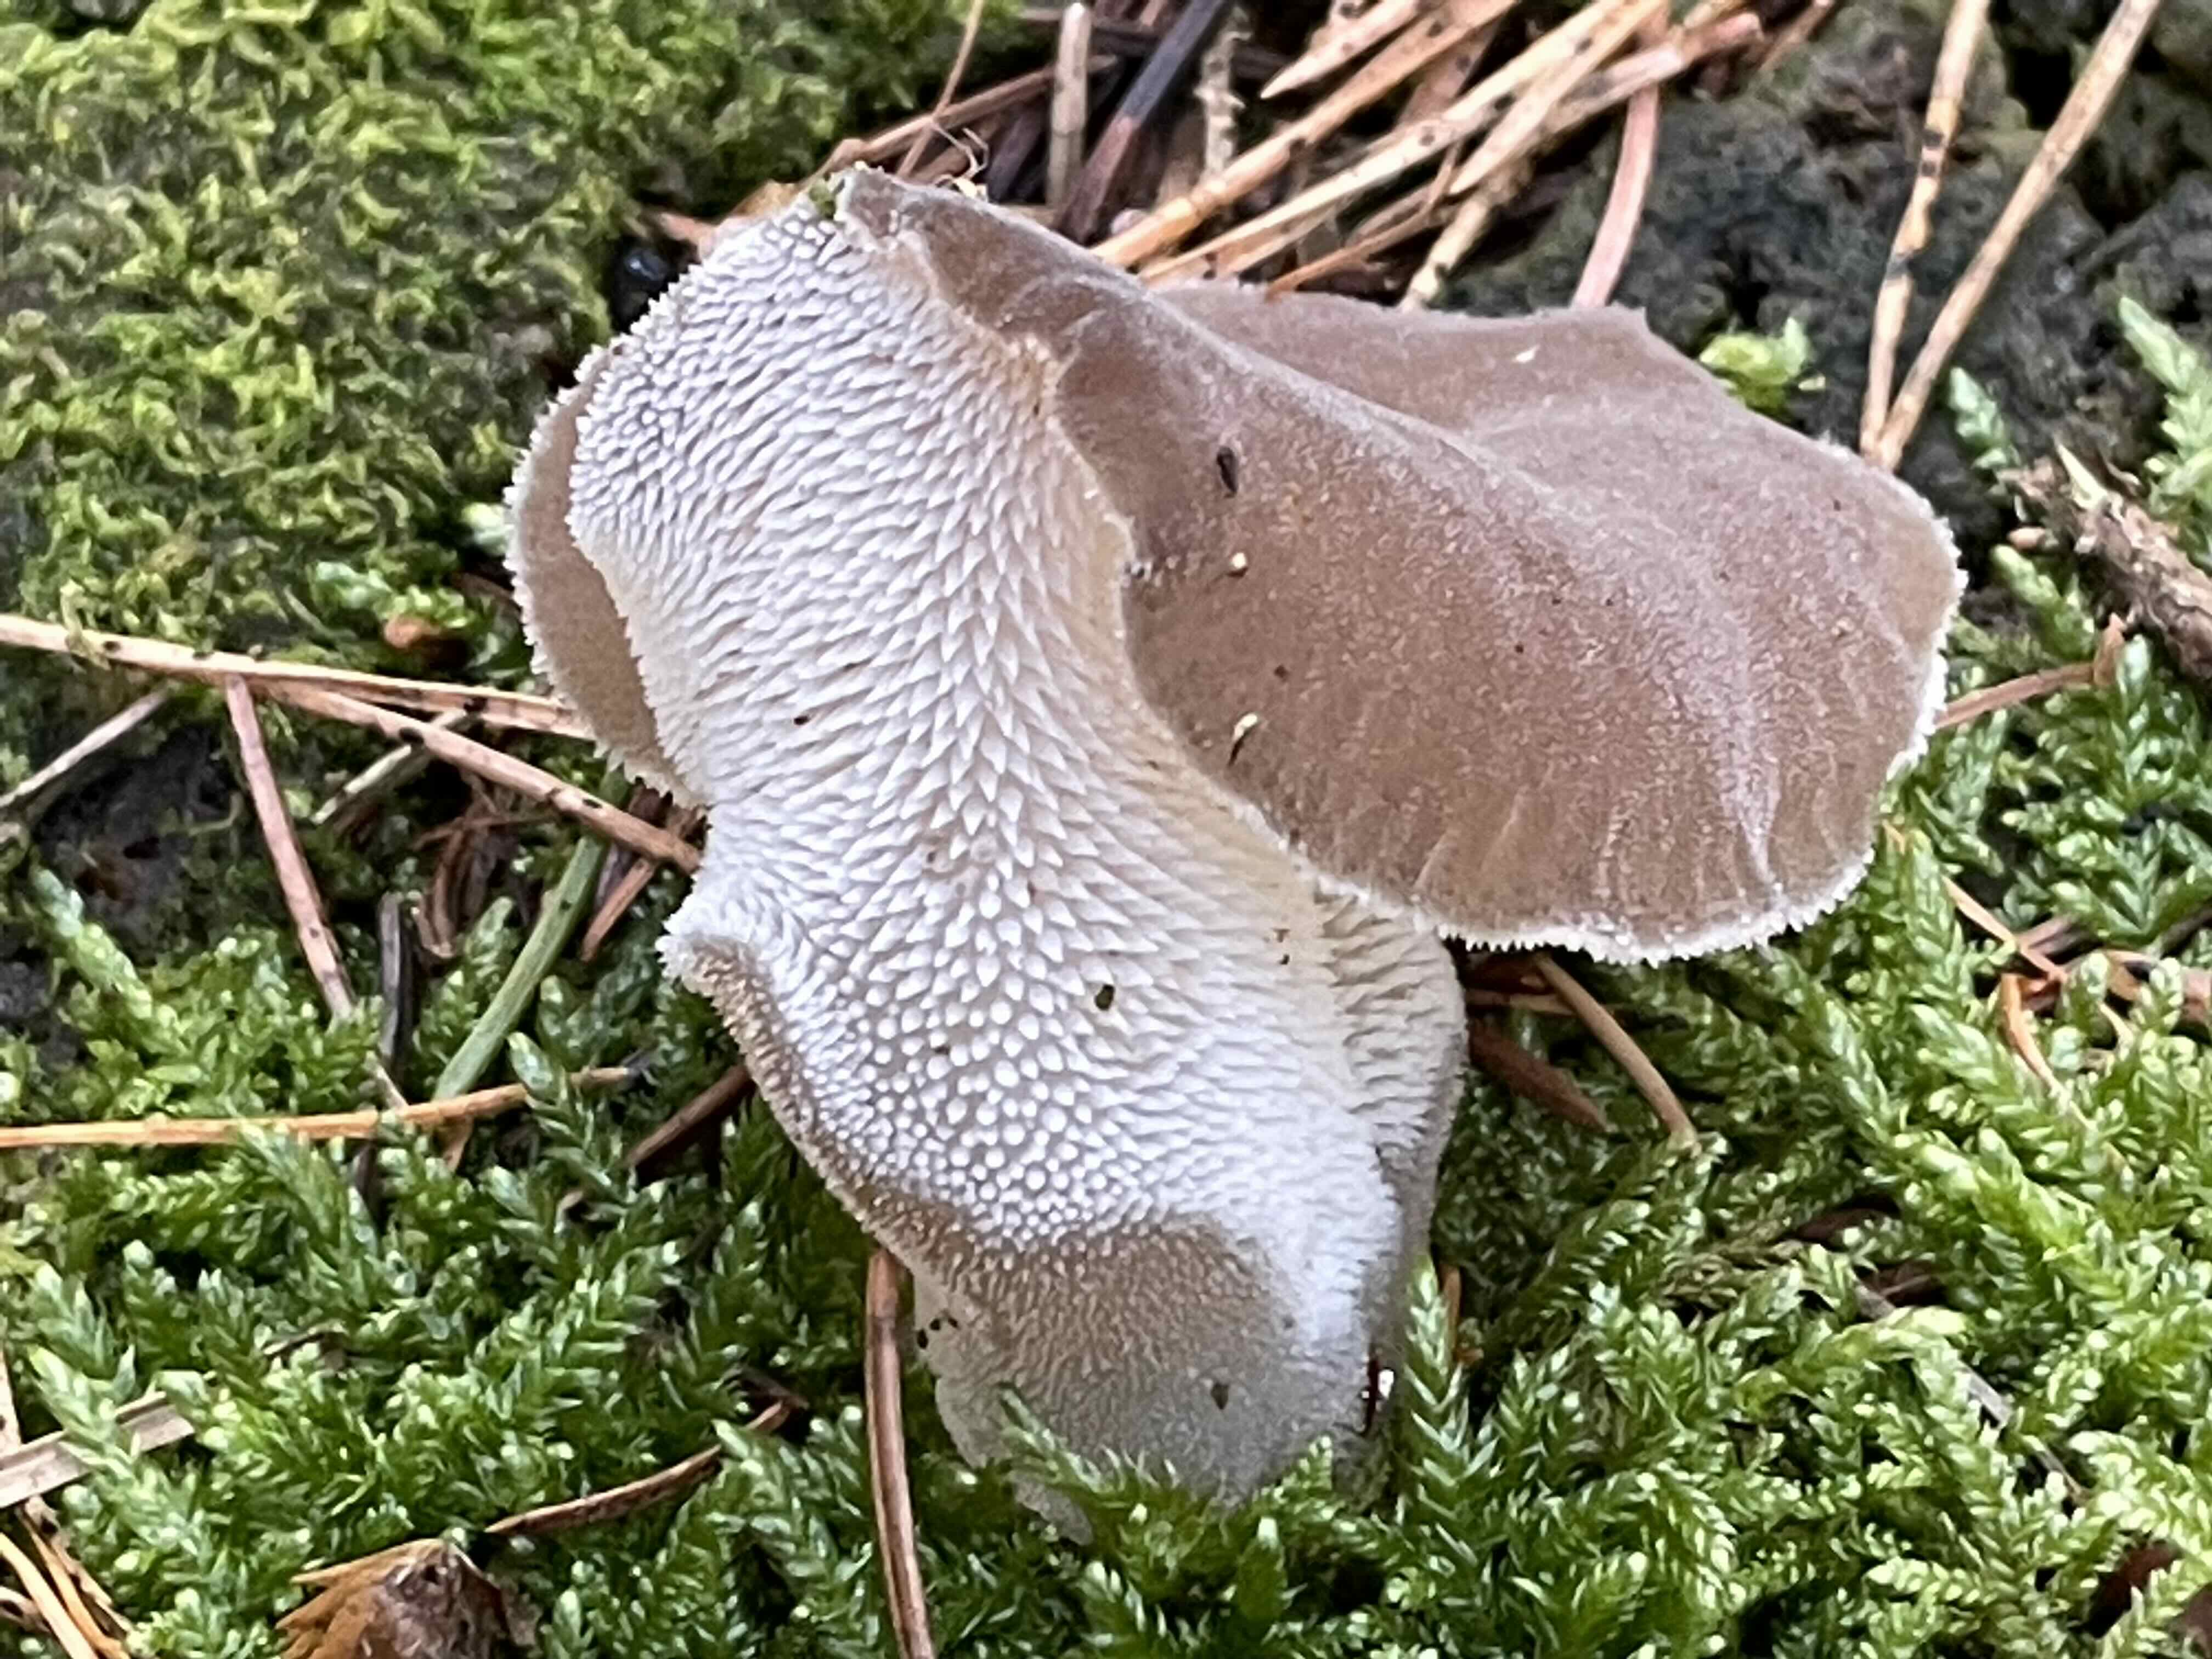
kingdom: Fungi
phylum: Basidiomycota
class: Agaricomycetes
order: Auriculariales
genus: Pseudohydnum
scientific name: Pseudohydnum gelatinosum
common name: bævretand
